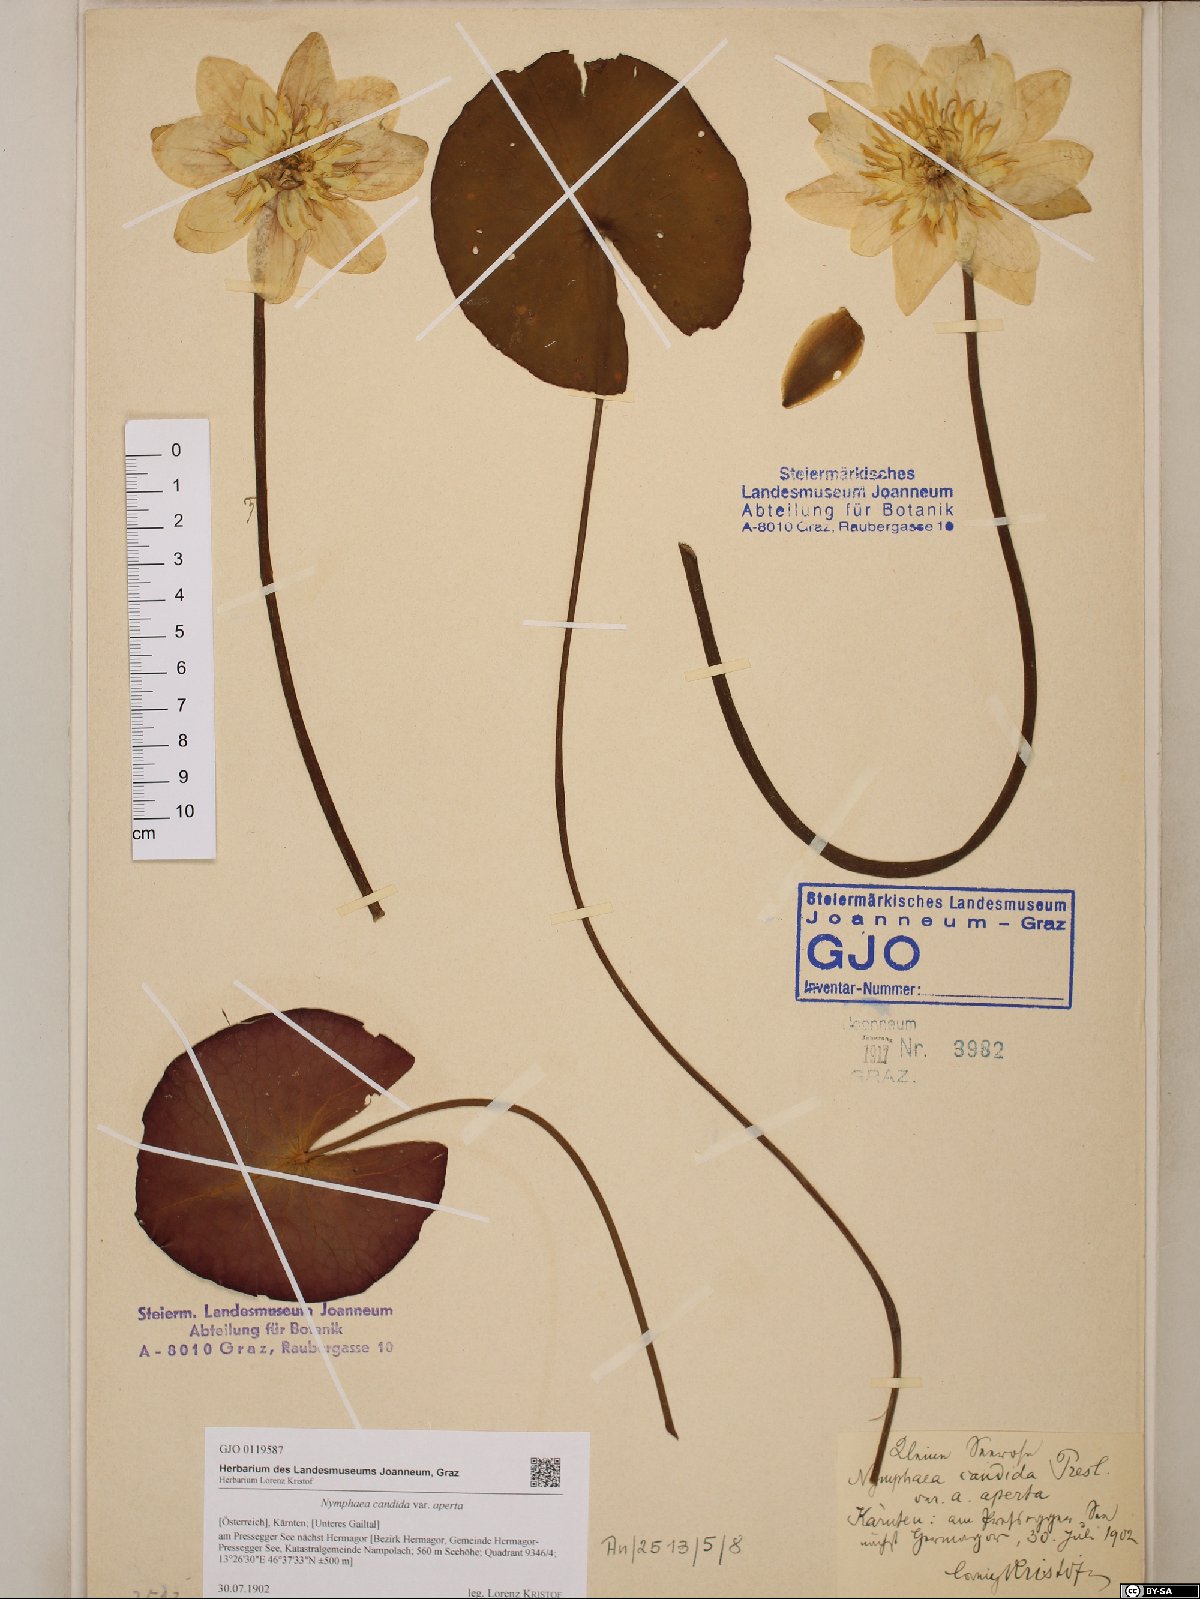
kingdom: Plantae
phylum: Tracheophyta
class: Magnoliopsida
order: Nymphaeales
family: Nymphaeaceae
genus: Nymphaea
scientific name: Nymphaea candida
